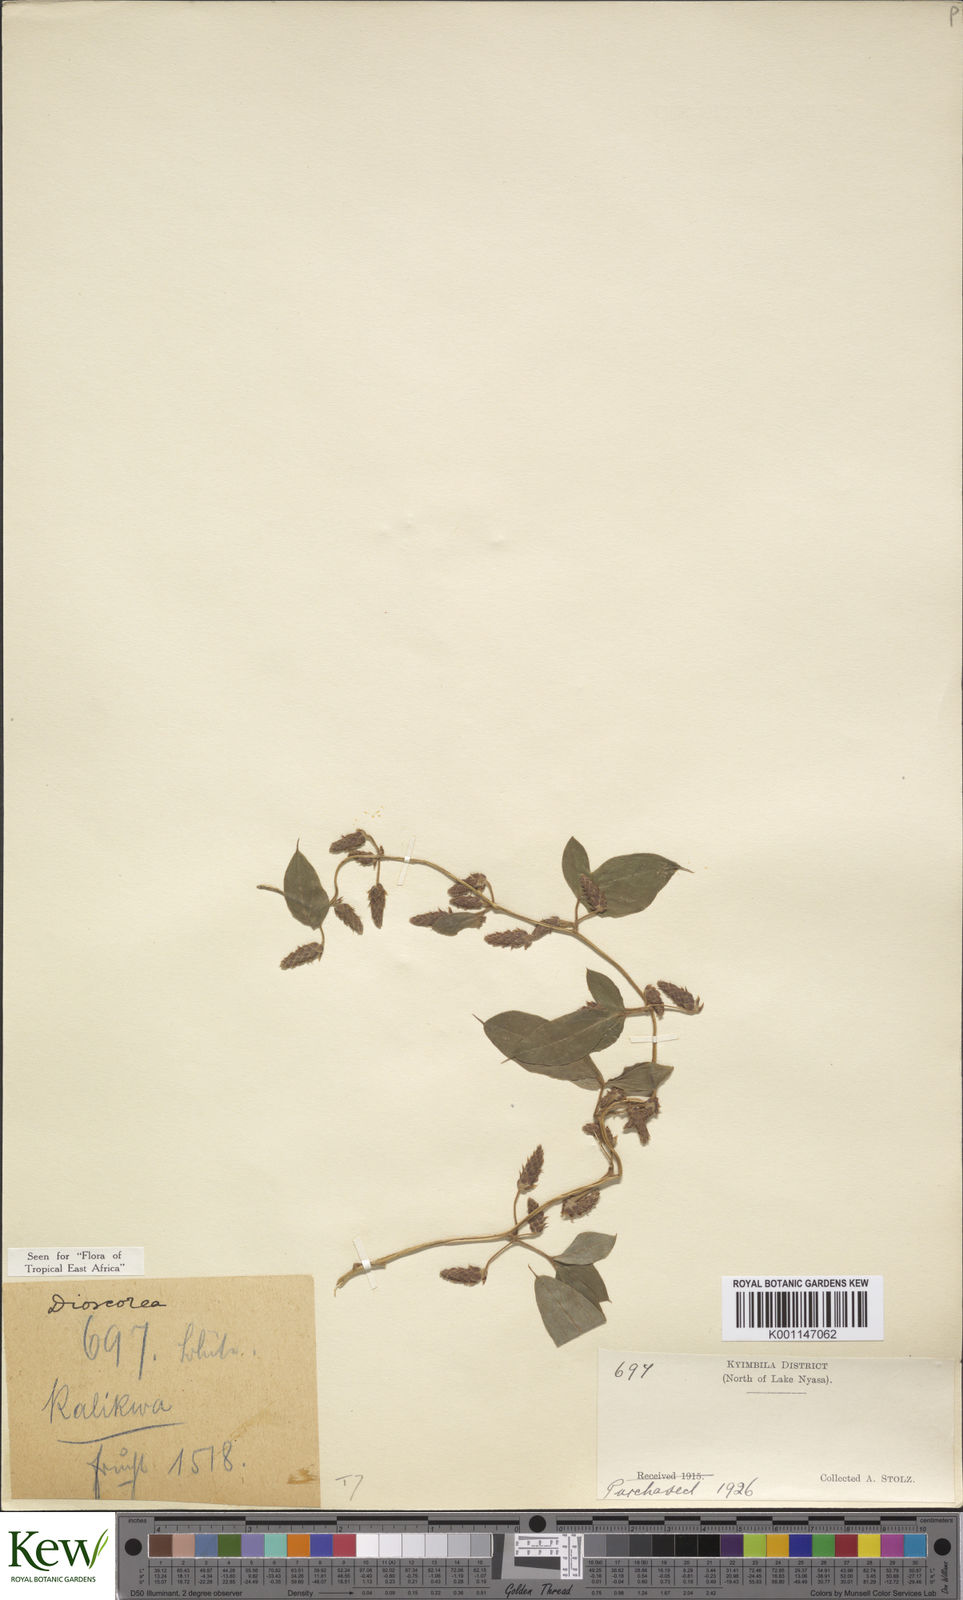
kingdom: Plantae
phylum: Tracheophyta
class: Liliopsida
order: Dioscoreales
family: Dioscoreaceae
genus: Dioscorea
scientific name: Dioscorea quartiniana
